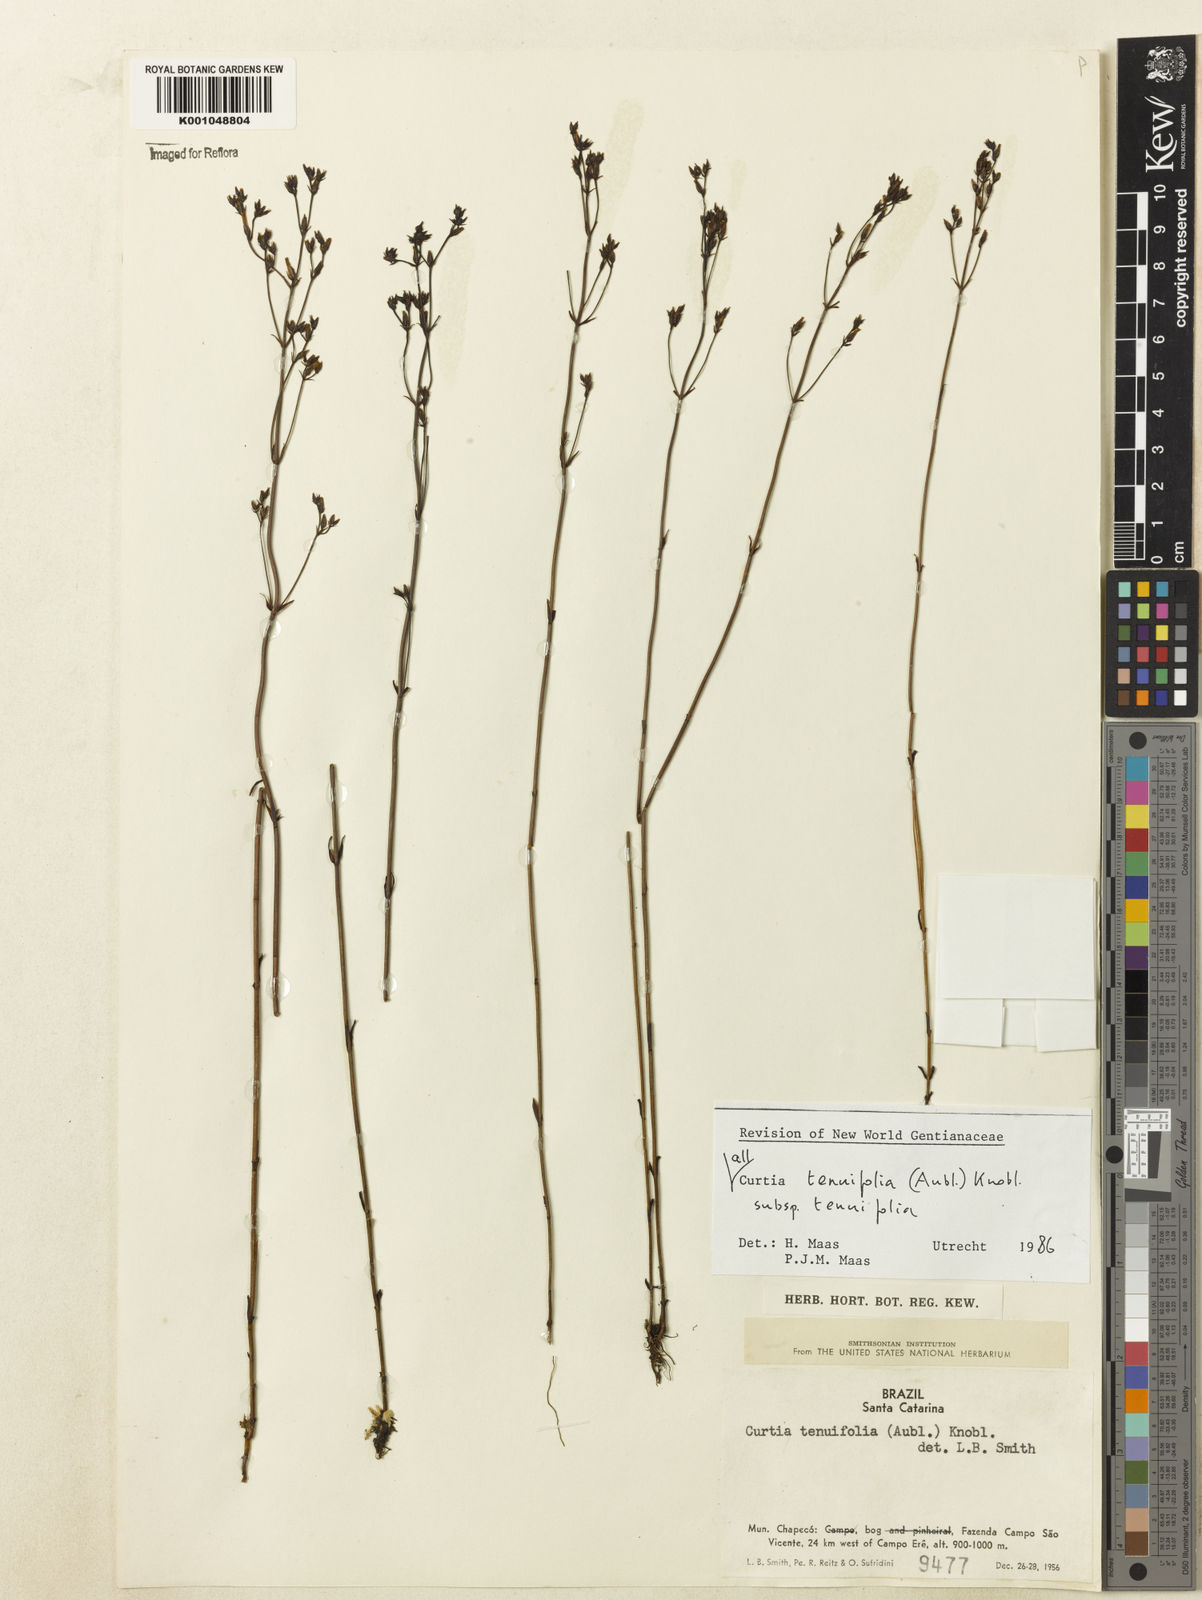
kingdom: Plantae
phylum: Tracheophyta
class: Magnoliopsida
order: Gentianales
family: Gentianaceae
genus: Curtia
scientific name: Curtia tenuifolia
